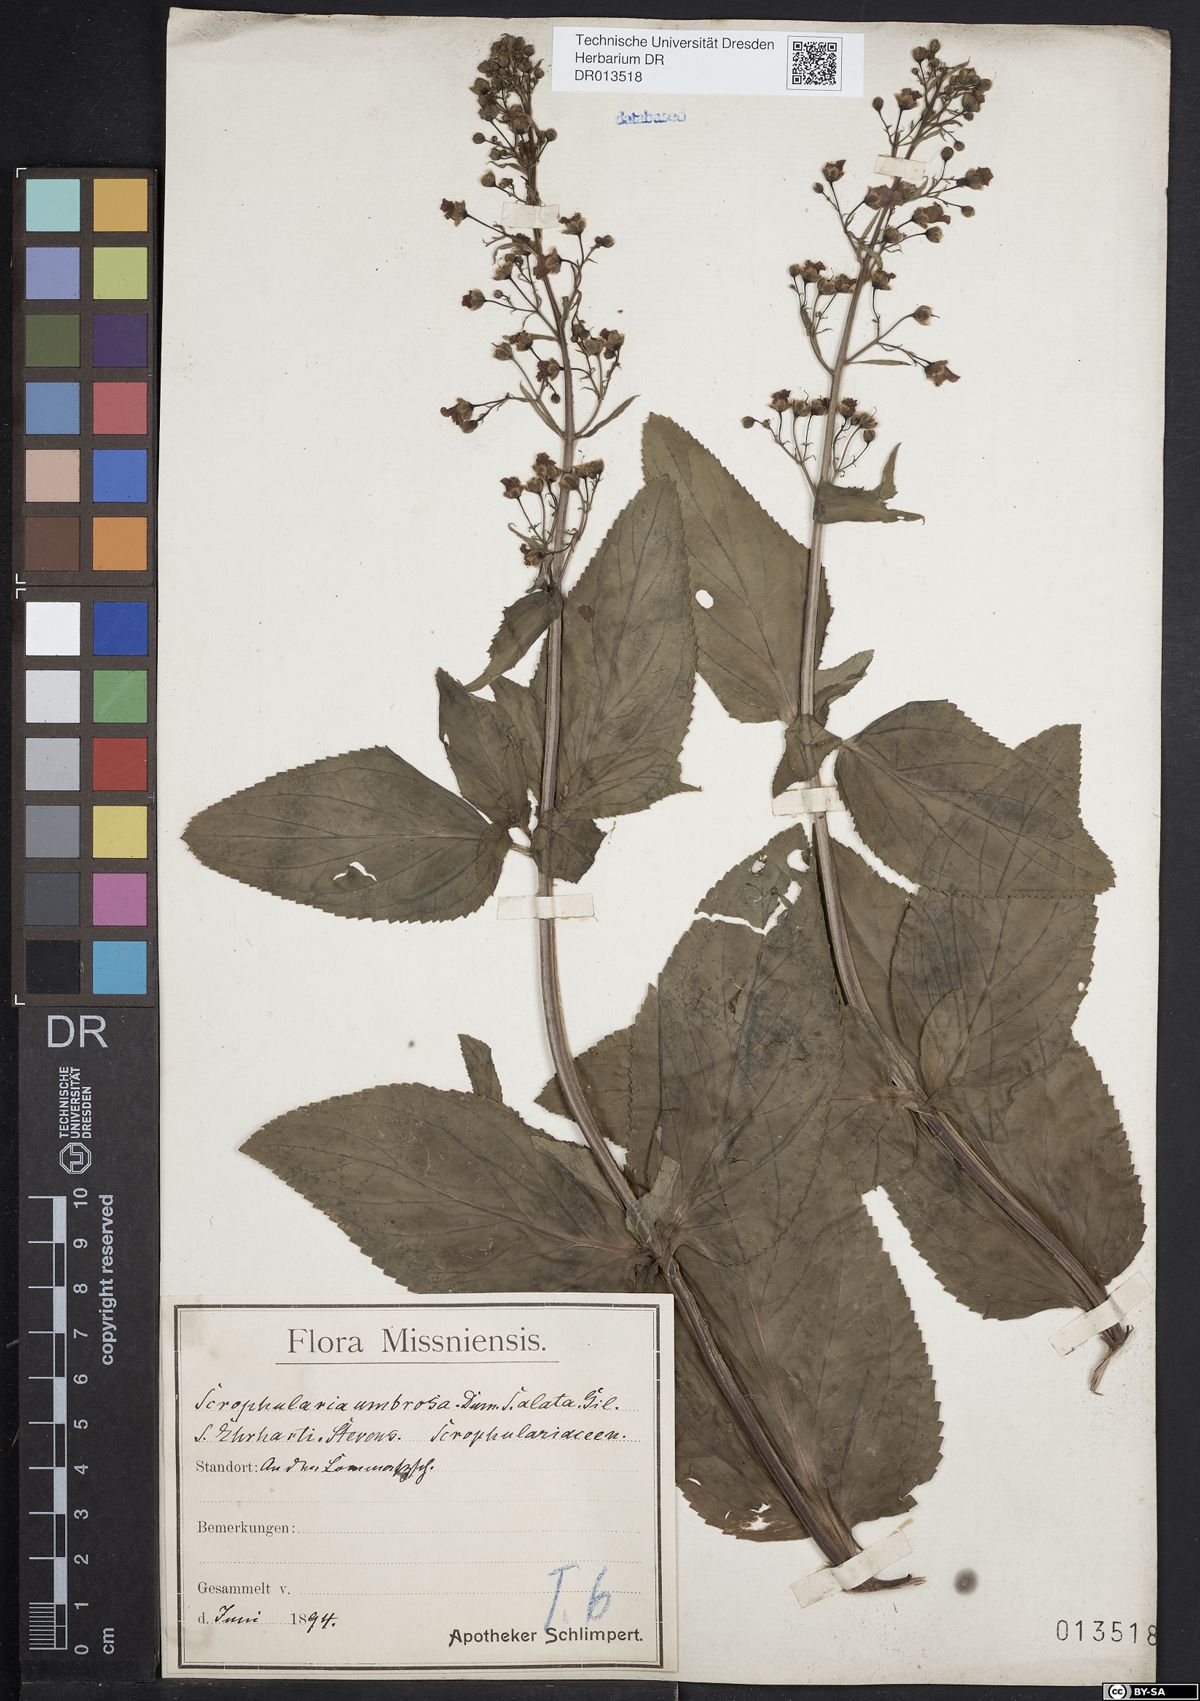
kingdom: Plantae
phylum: Tracheophyta
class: Magnoliopsida
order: Lamiales
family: Scrophulariaceae
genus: Scrophularia
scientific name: Scrophularia umbrosa
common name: Green figwort
